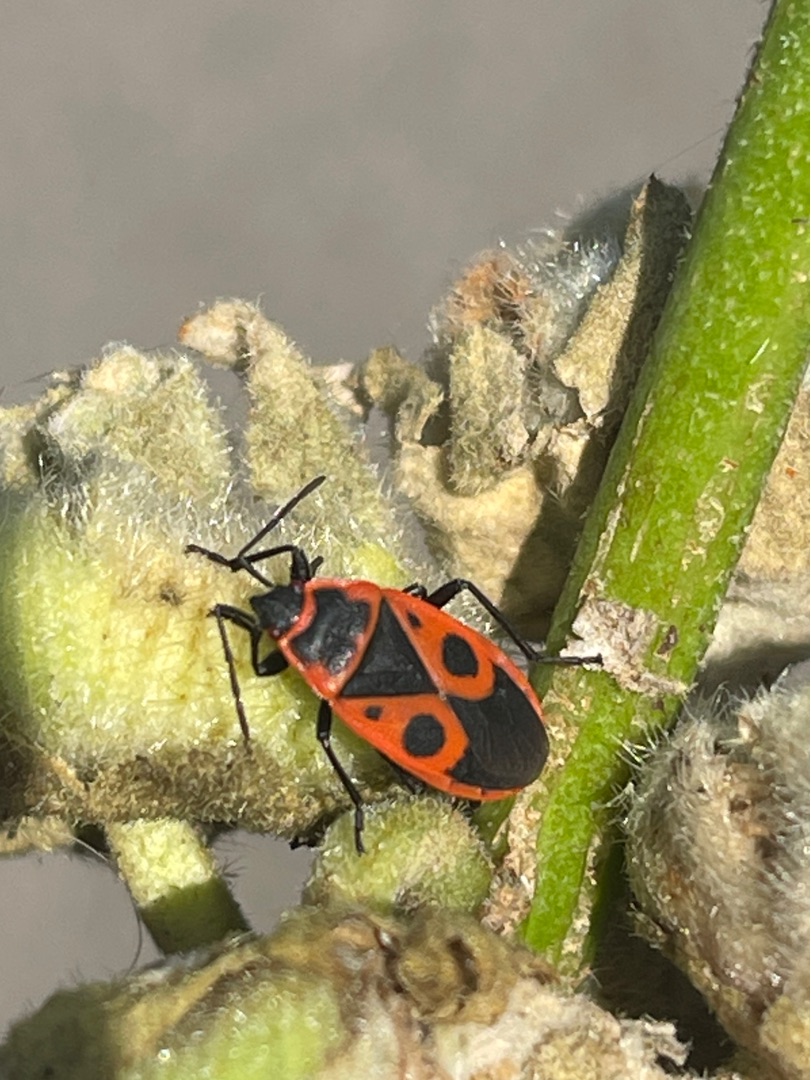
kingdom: Animalia
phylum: Arthropoda
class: Insecta
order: Hemiptera
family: Pyrrhocoridae
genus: Pyrrhocoris
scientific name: Pyrrhocoris apterus
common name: Ildtæge
